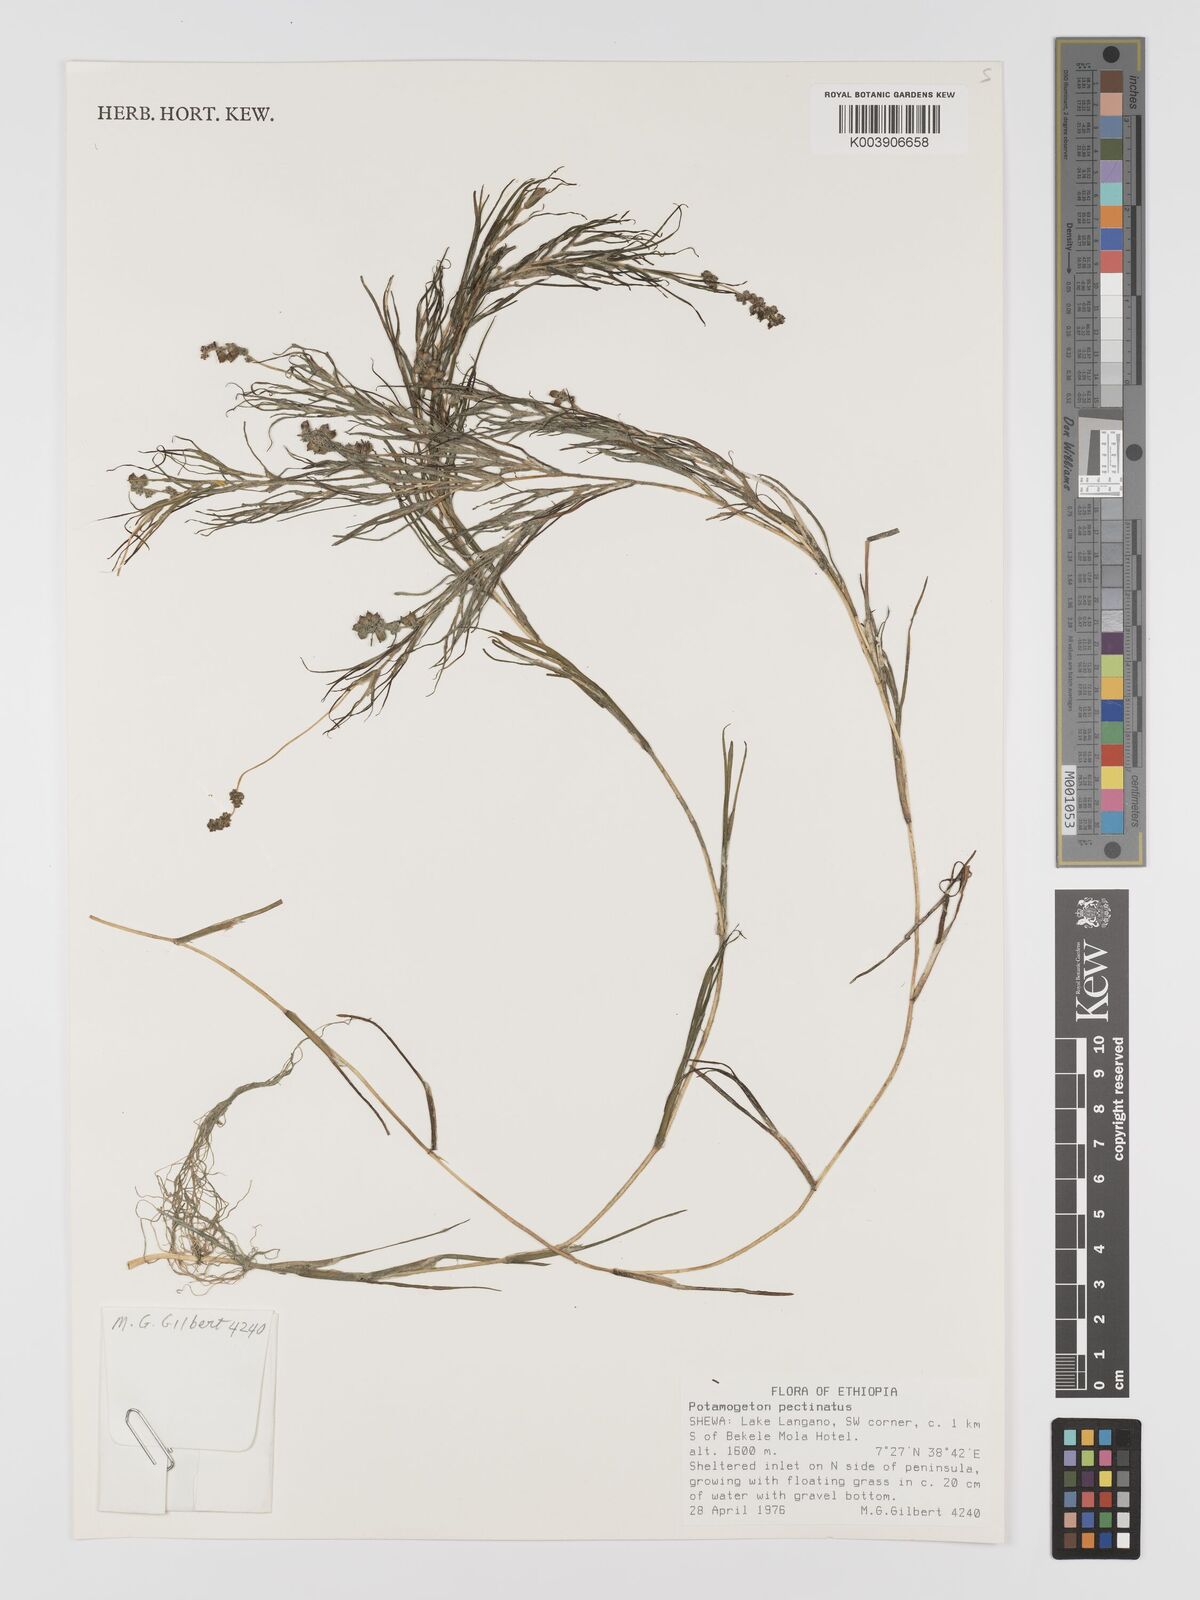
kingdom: Plantae
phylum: Tracheophyta
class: Liliopsida
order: Alismatales
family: Potamogetonaceae
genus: Stuckenia
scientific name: Stuckenia pectinata
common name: Sago pondweed
